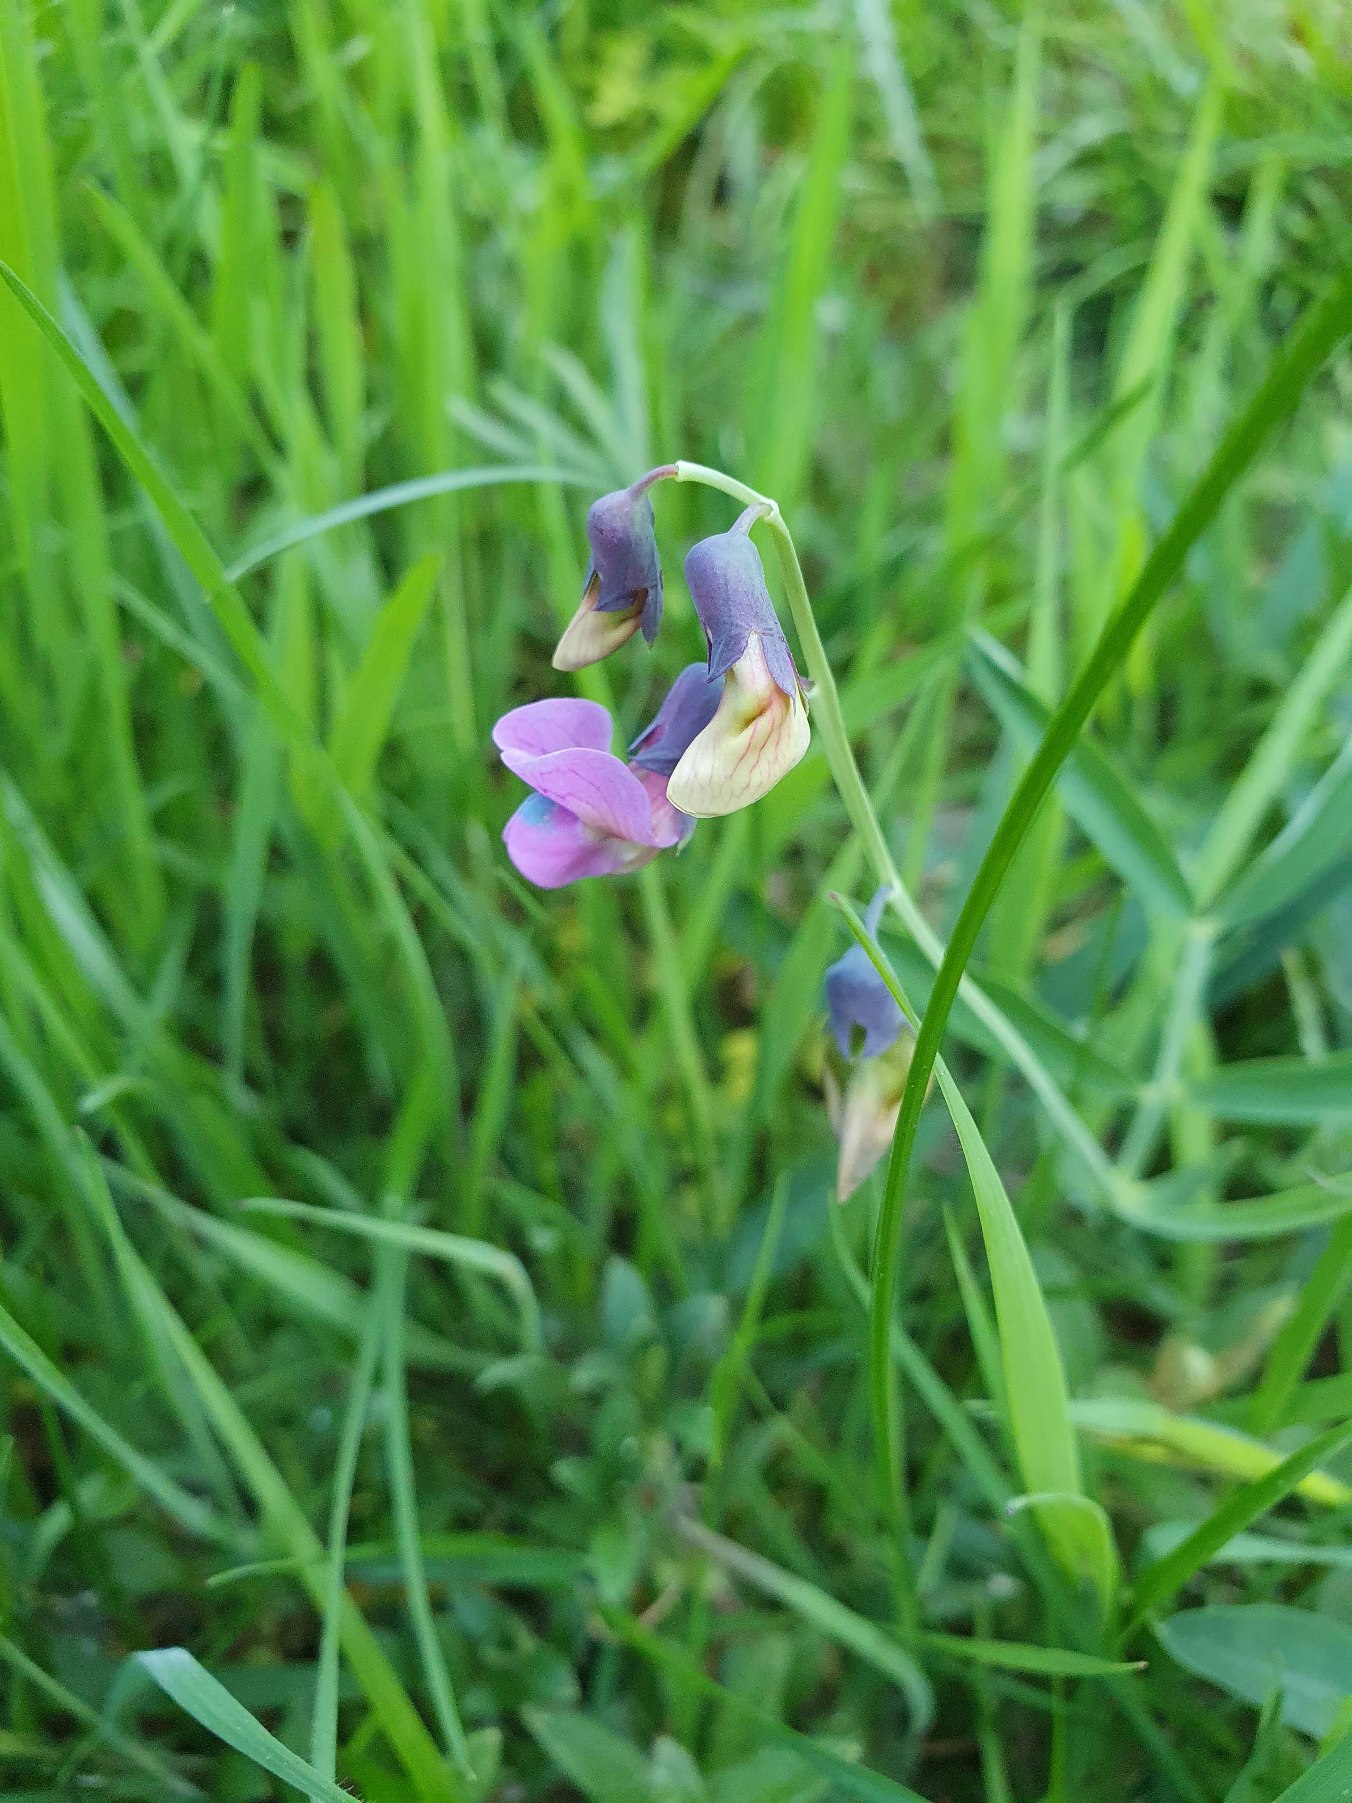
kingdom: Plantae
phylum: Tracheophyta
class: Magnoliopsida
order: Fabales
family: Fabaceae
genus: Lathyrus
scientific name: Lathyrus linifolius
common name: Krat-fladbælg
